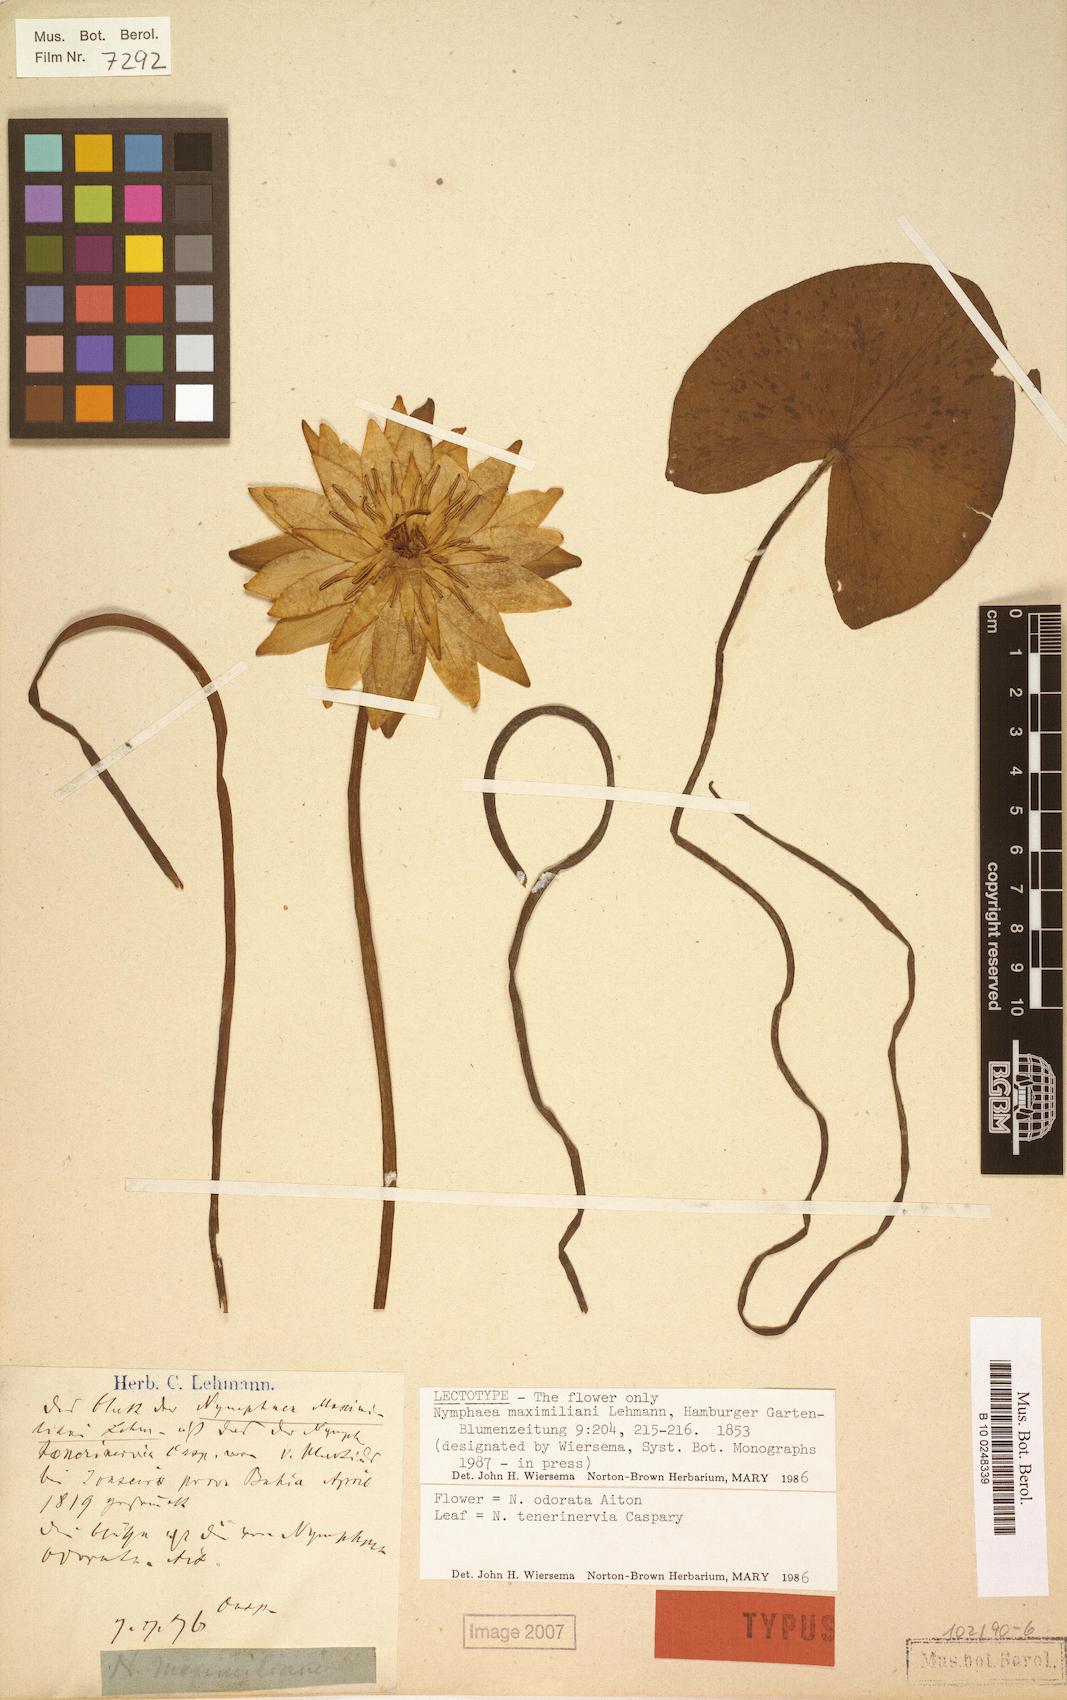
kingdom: Plantae
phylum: Tracheophyta
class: Magnoliopsida
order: Nymphaeales
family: Nymphaeaceae
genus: Nymphaea
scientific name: Nymphaea odorata
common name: Fragrant water-lily
